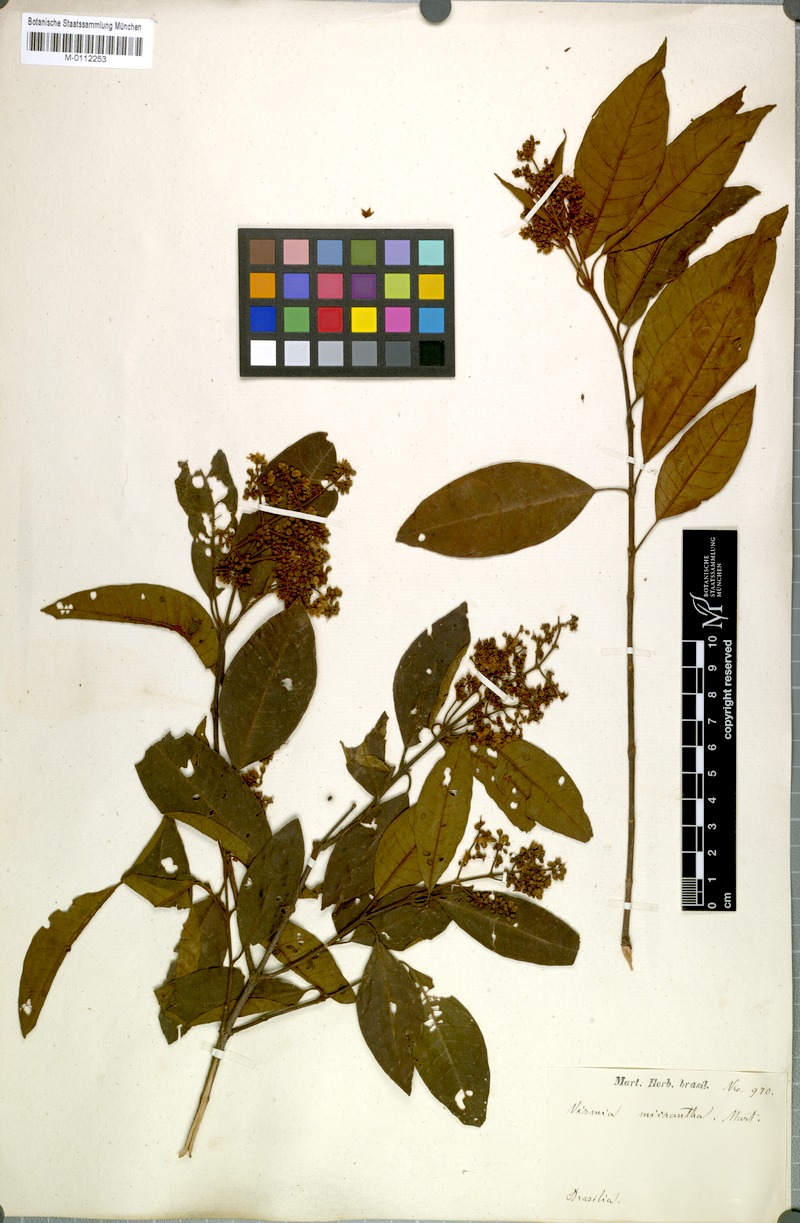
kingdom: Plantae
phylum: Tracheophyta
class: Magnoliopsida
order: Malpighiales
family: Hypericaceae
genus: Vismia
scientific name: Vismia micrantha
